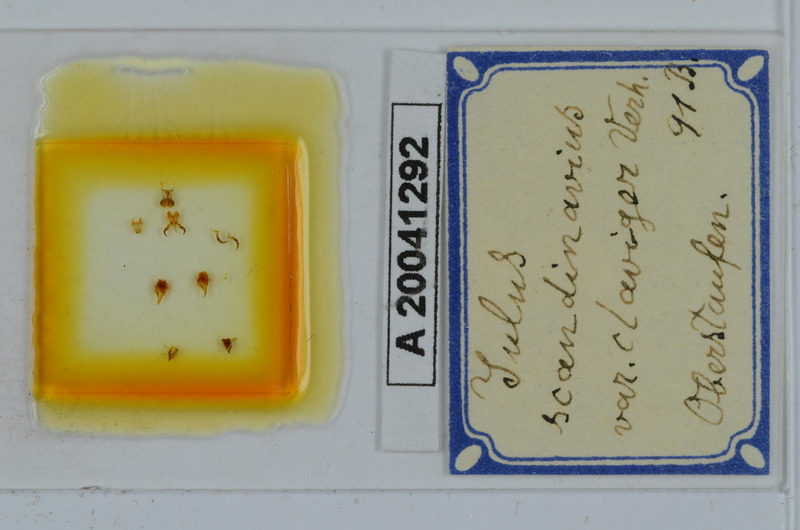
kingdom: Animalia
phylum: Arthropoda
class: Diplopoda
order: Julida
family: Julidae
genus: Julus
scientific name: Julus scandinavius
